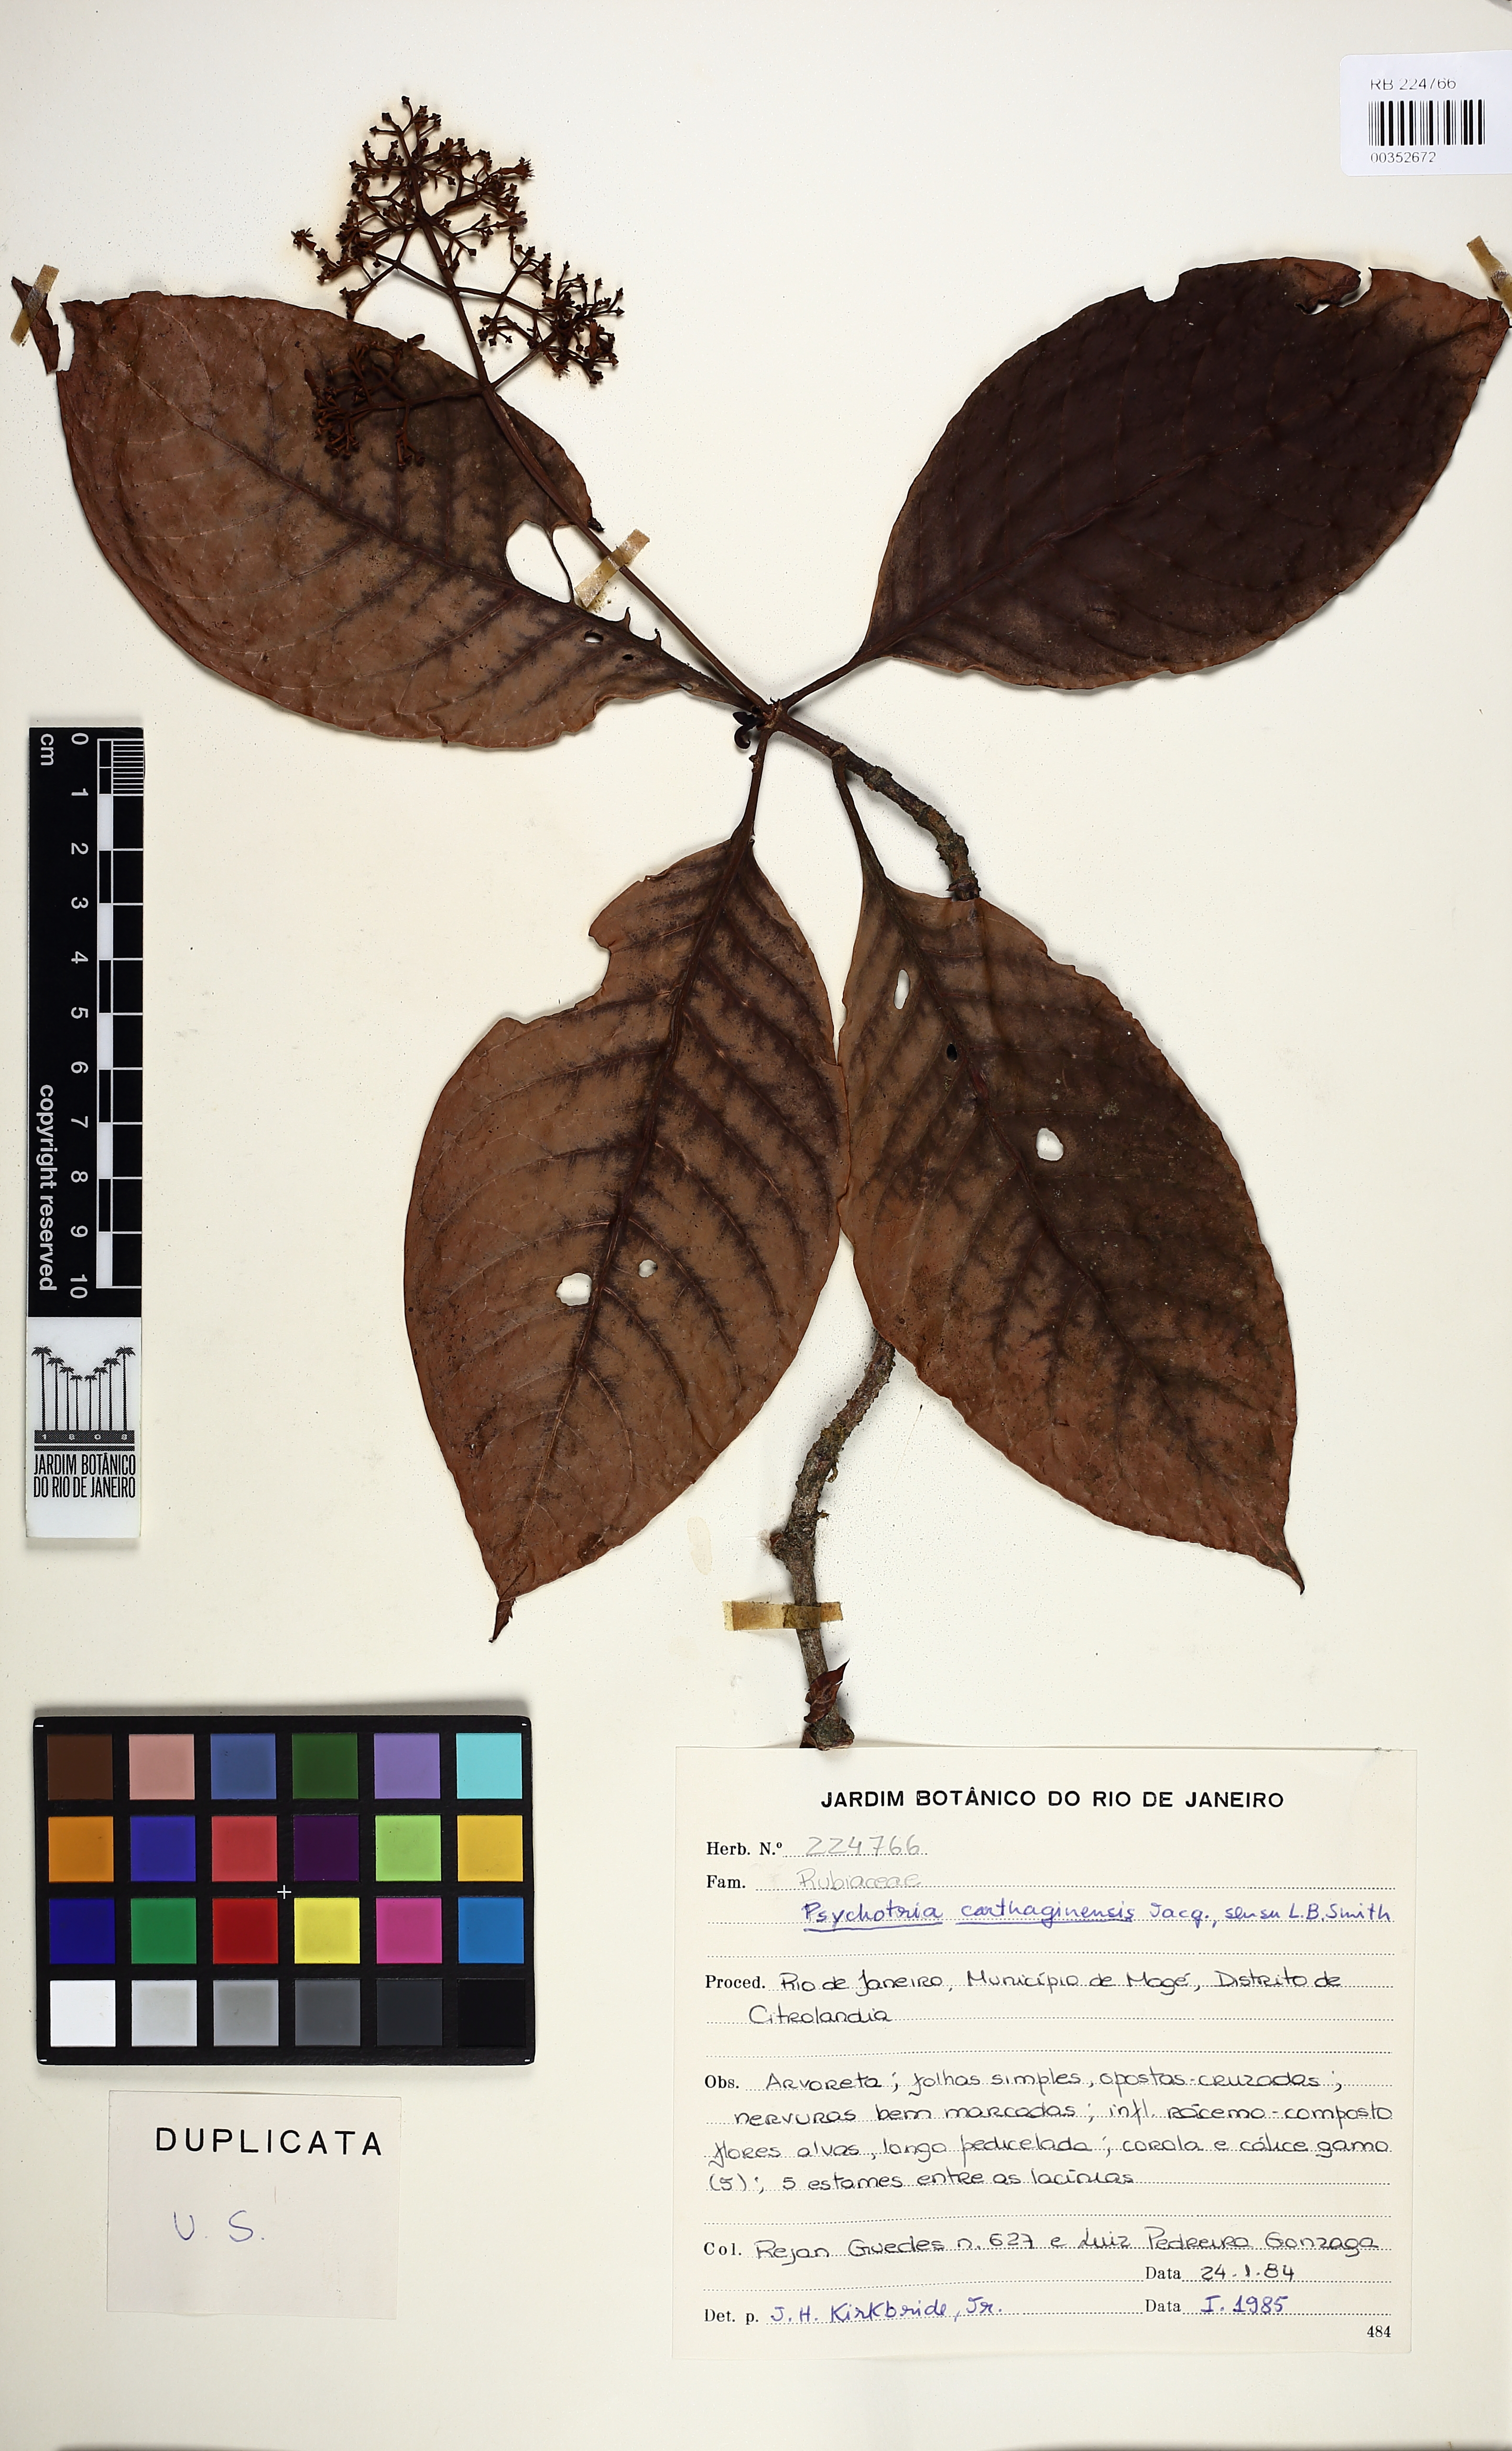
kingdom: Plantae
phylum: Tracheophyta
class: Magnoliopsida
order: Gentianales
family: Rubiaceae
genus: Psychotria
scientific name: Psychotria pedunculosa
